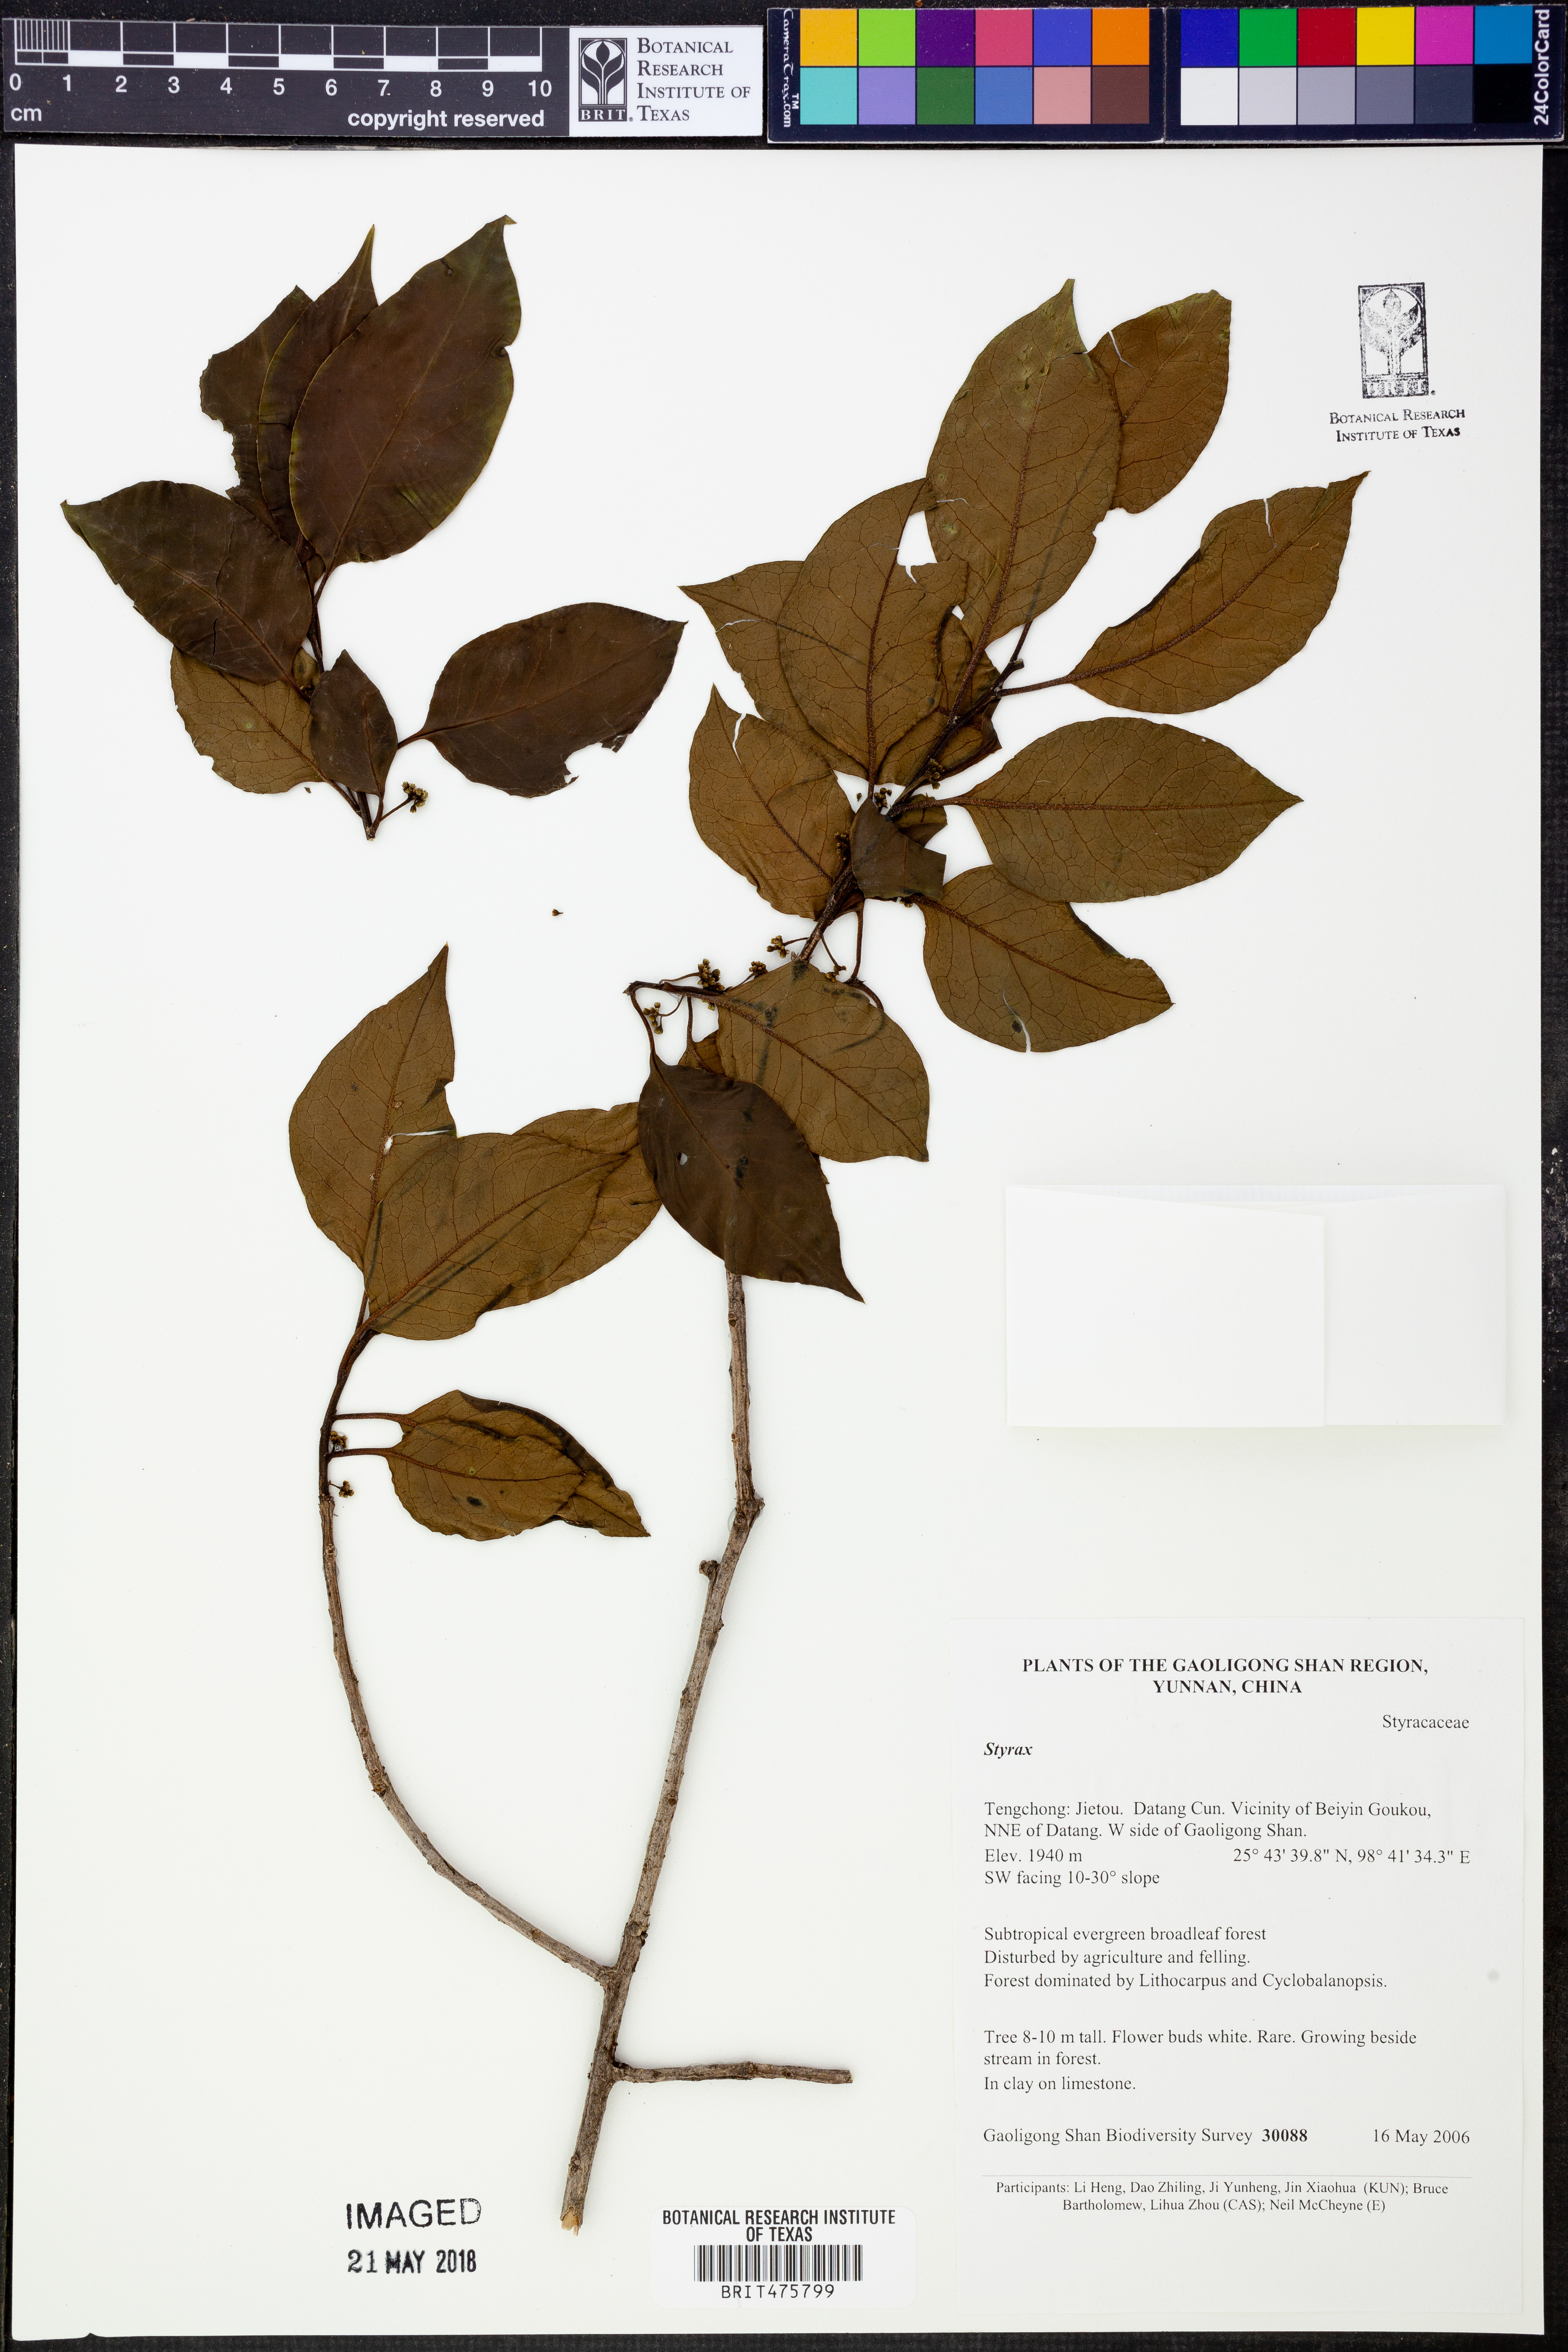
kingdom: Plantae
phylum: Tracheophyta
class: Magnoliopsida
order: Aquifoliales
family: Aquifoliaceae
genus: Ilex
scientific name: Ilex excelsa
